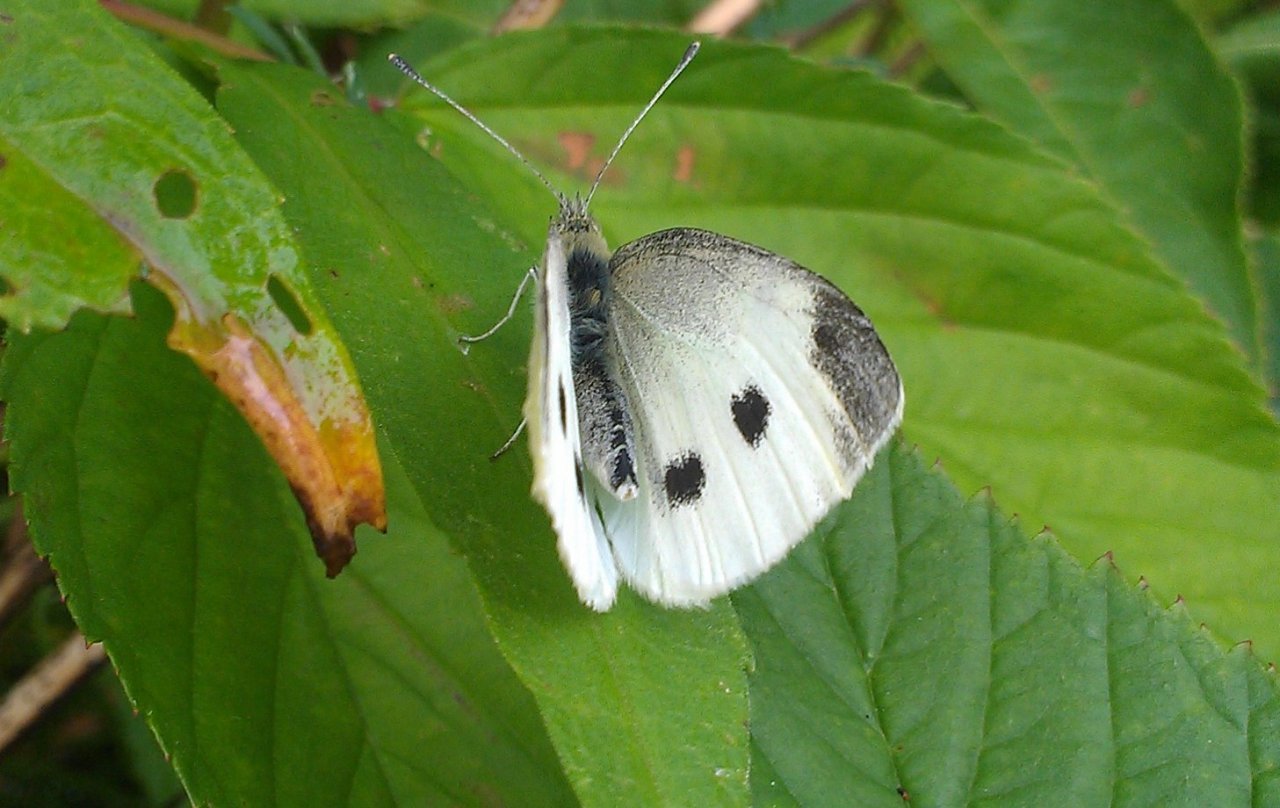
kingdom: Animalia
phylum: Arthropoda
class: Insecta
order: Lepidoptera
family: Pieridae
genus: Pieris
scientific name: Pieris rapae
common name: Cabbage White
